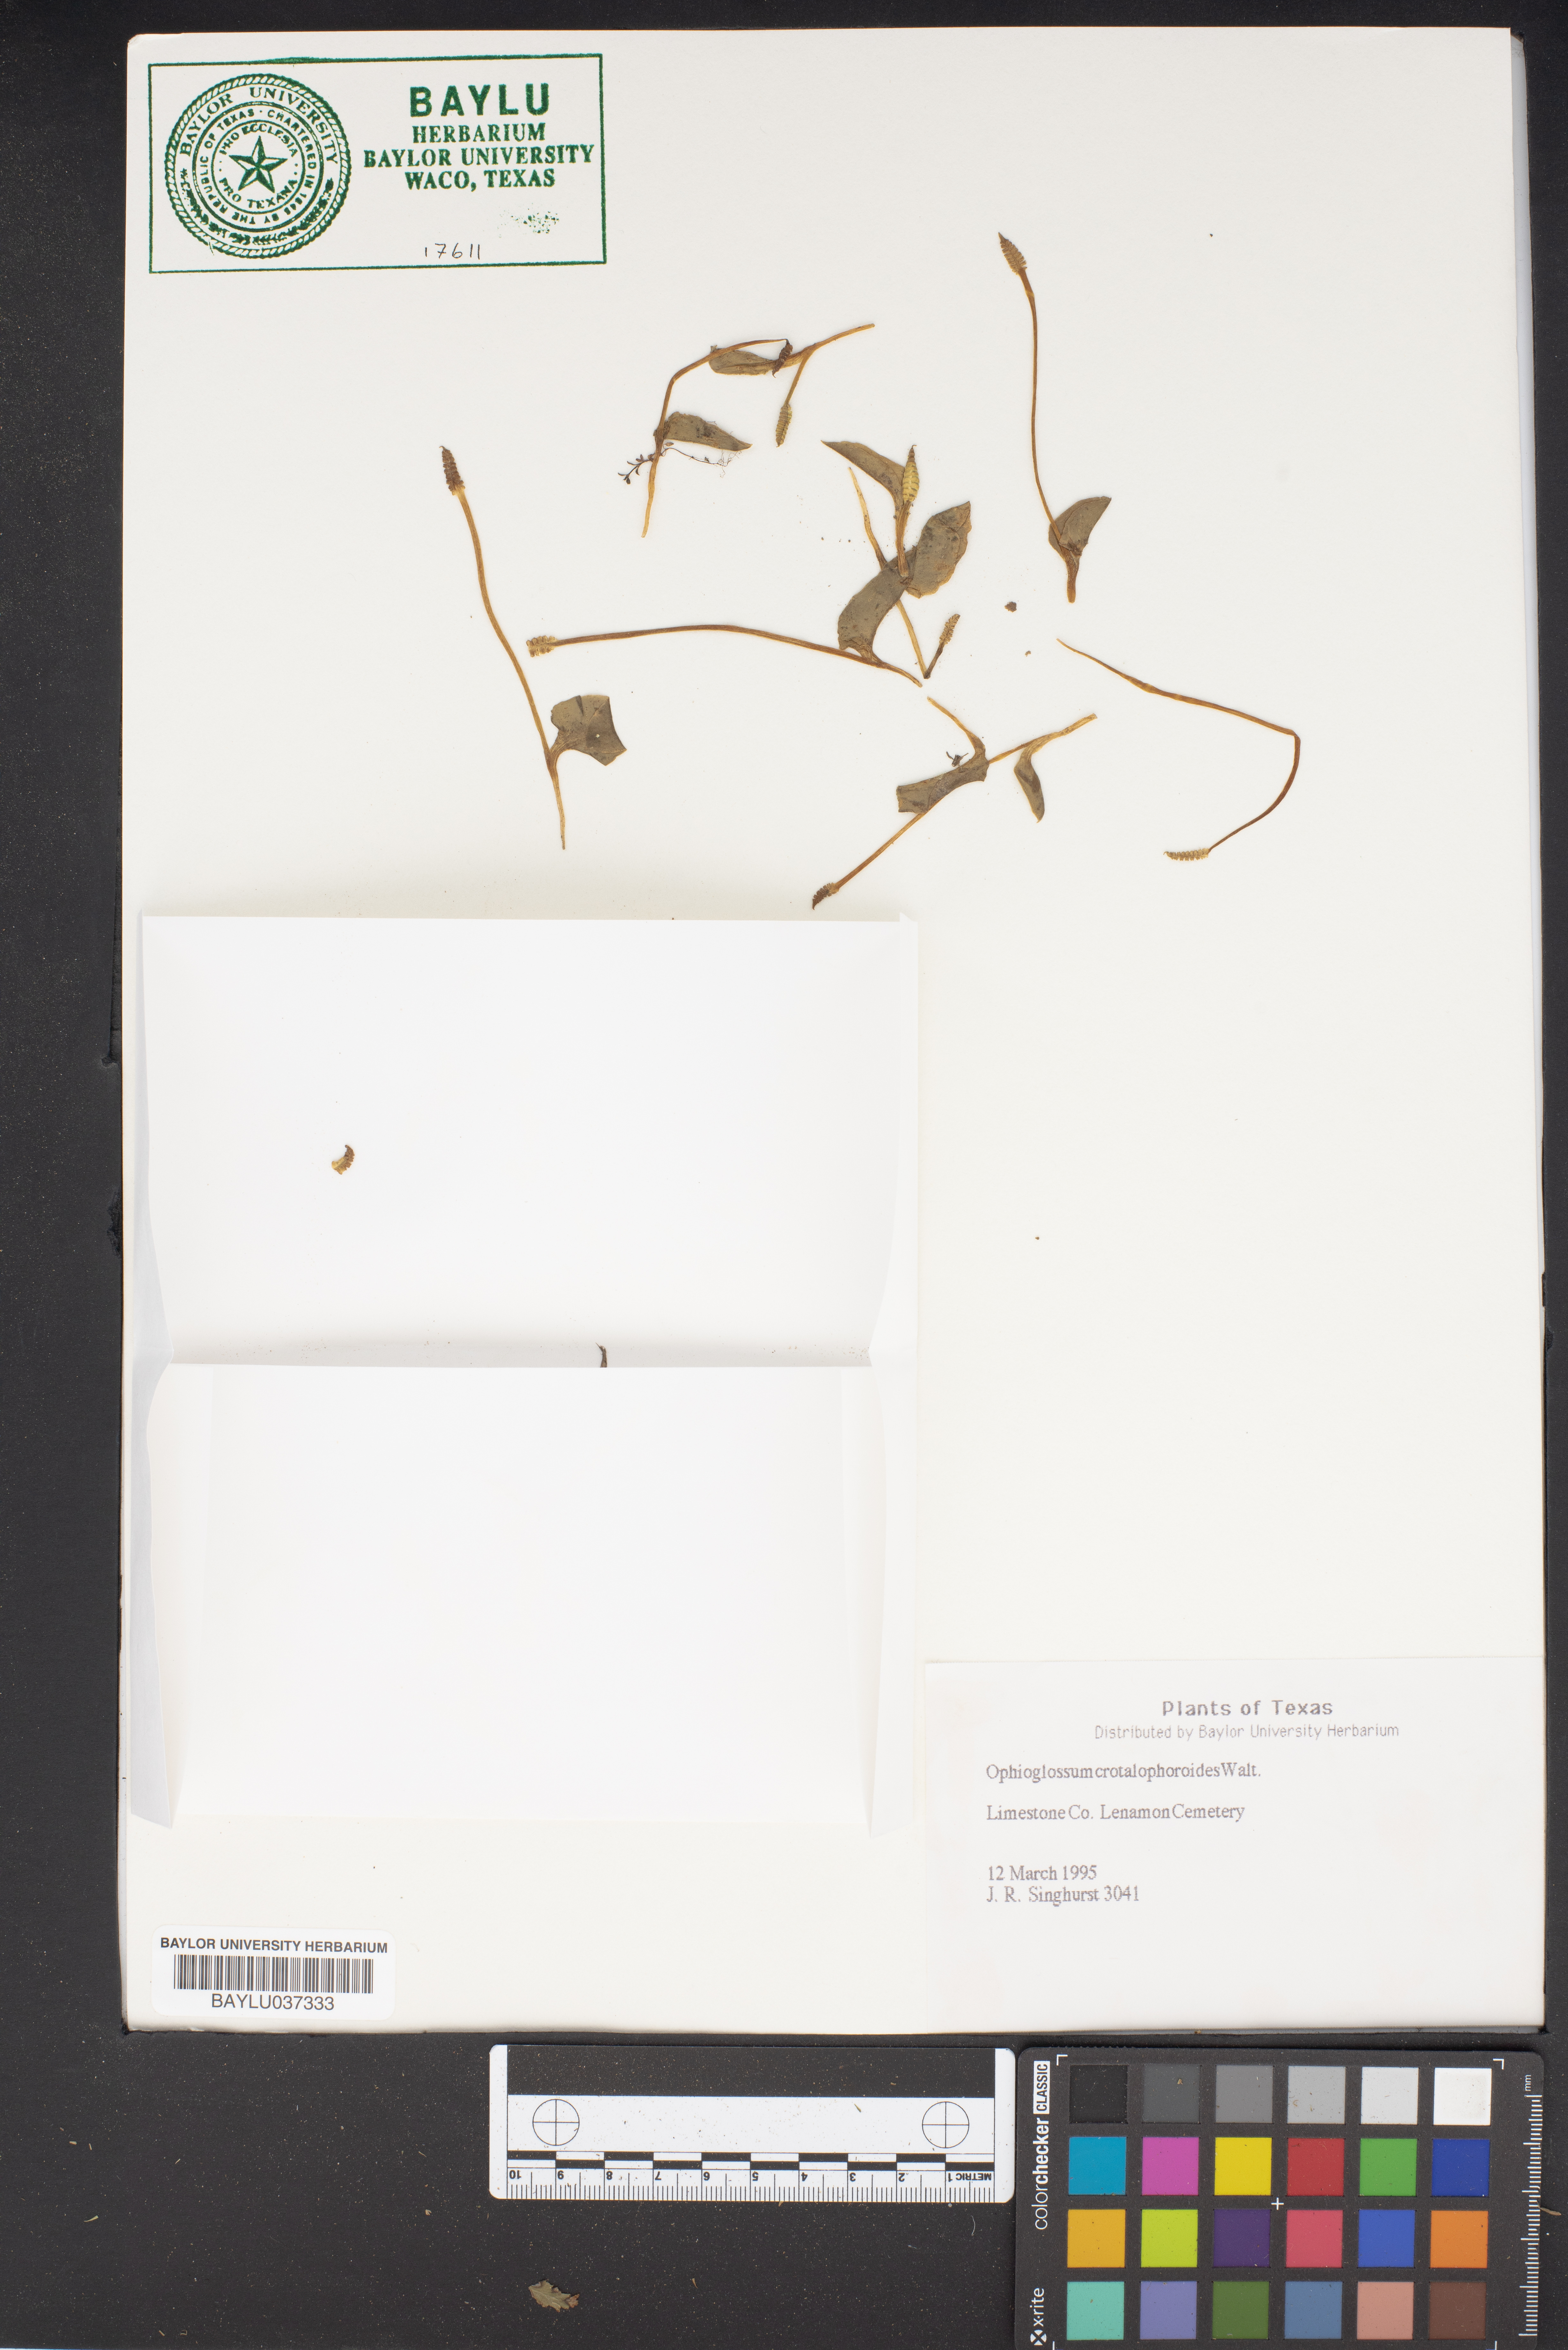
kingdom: Plantae
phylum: Tracheophyta
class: Polypodiopsida
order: Ophioglossales
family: Ophioglossaceae
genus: Ophioglossum
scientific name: Ophioglossum crotalophoroides
